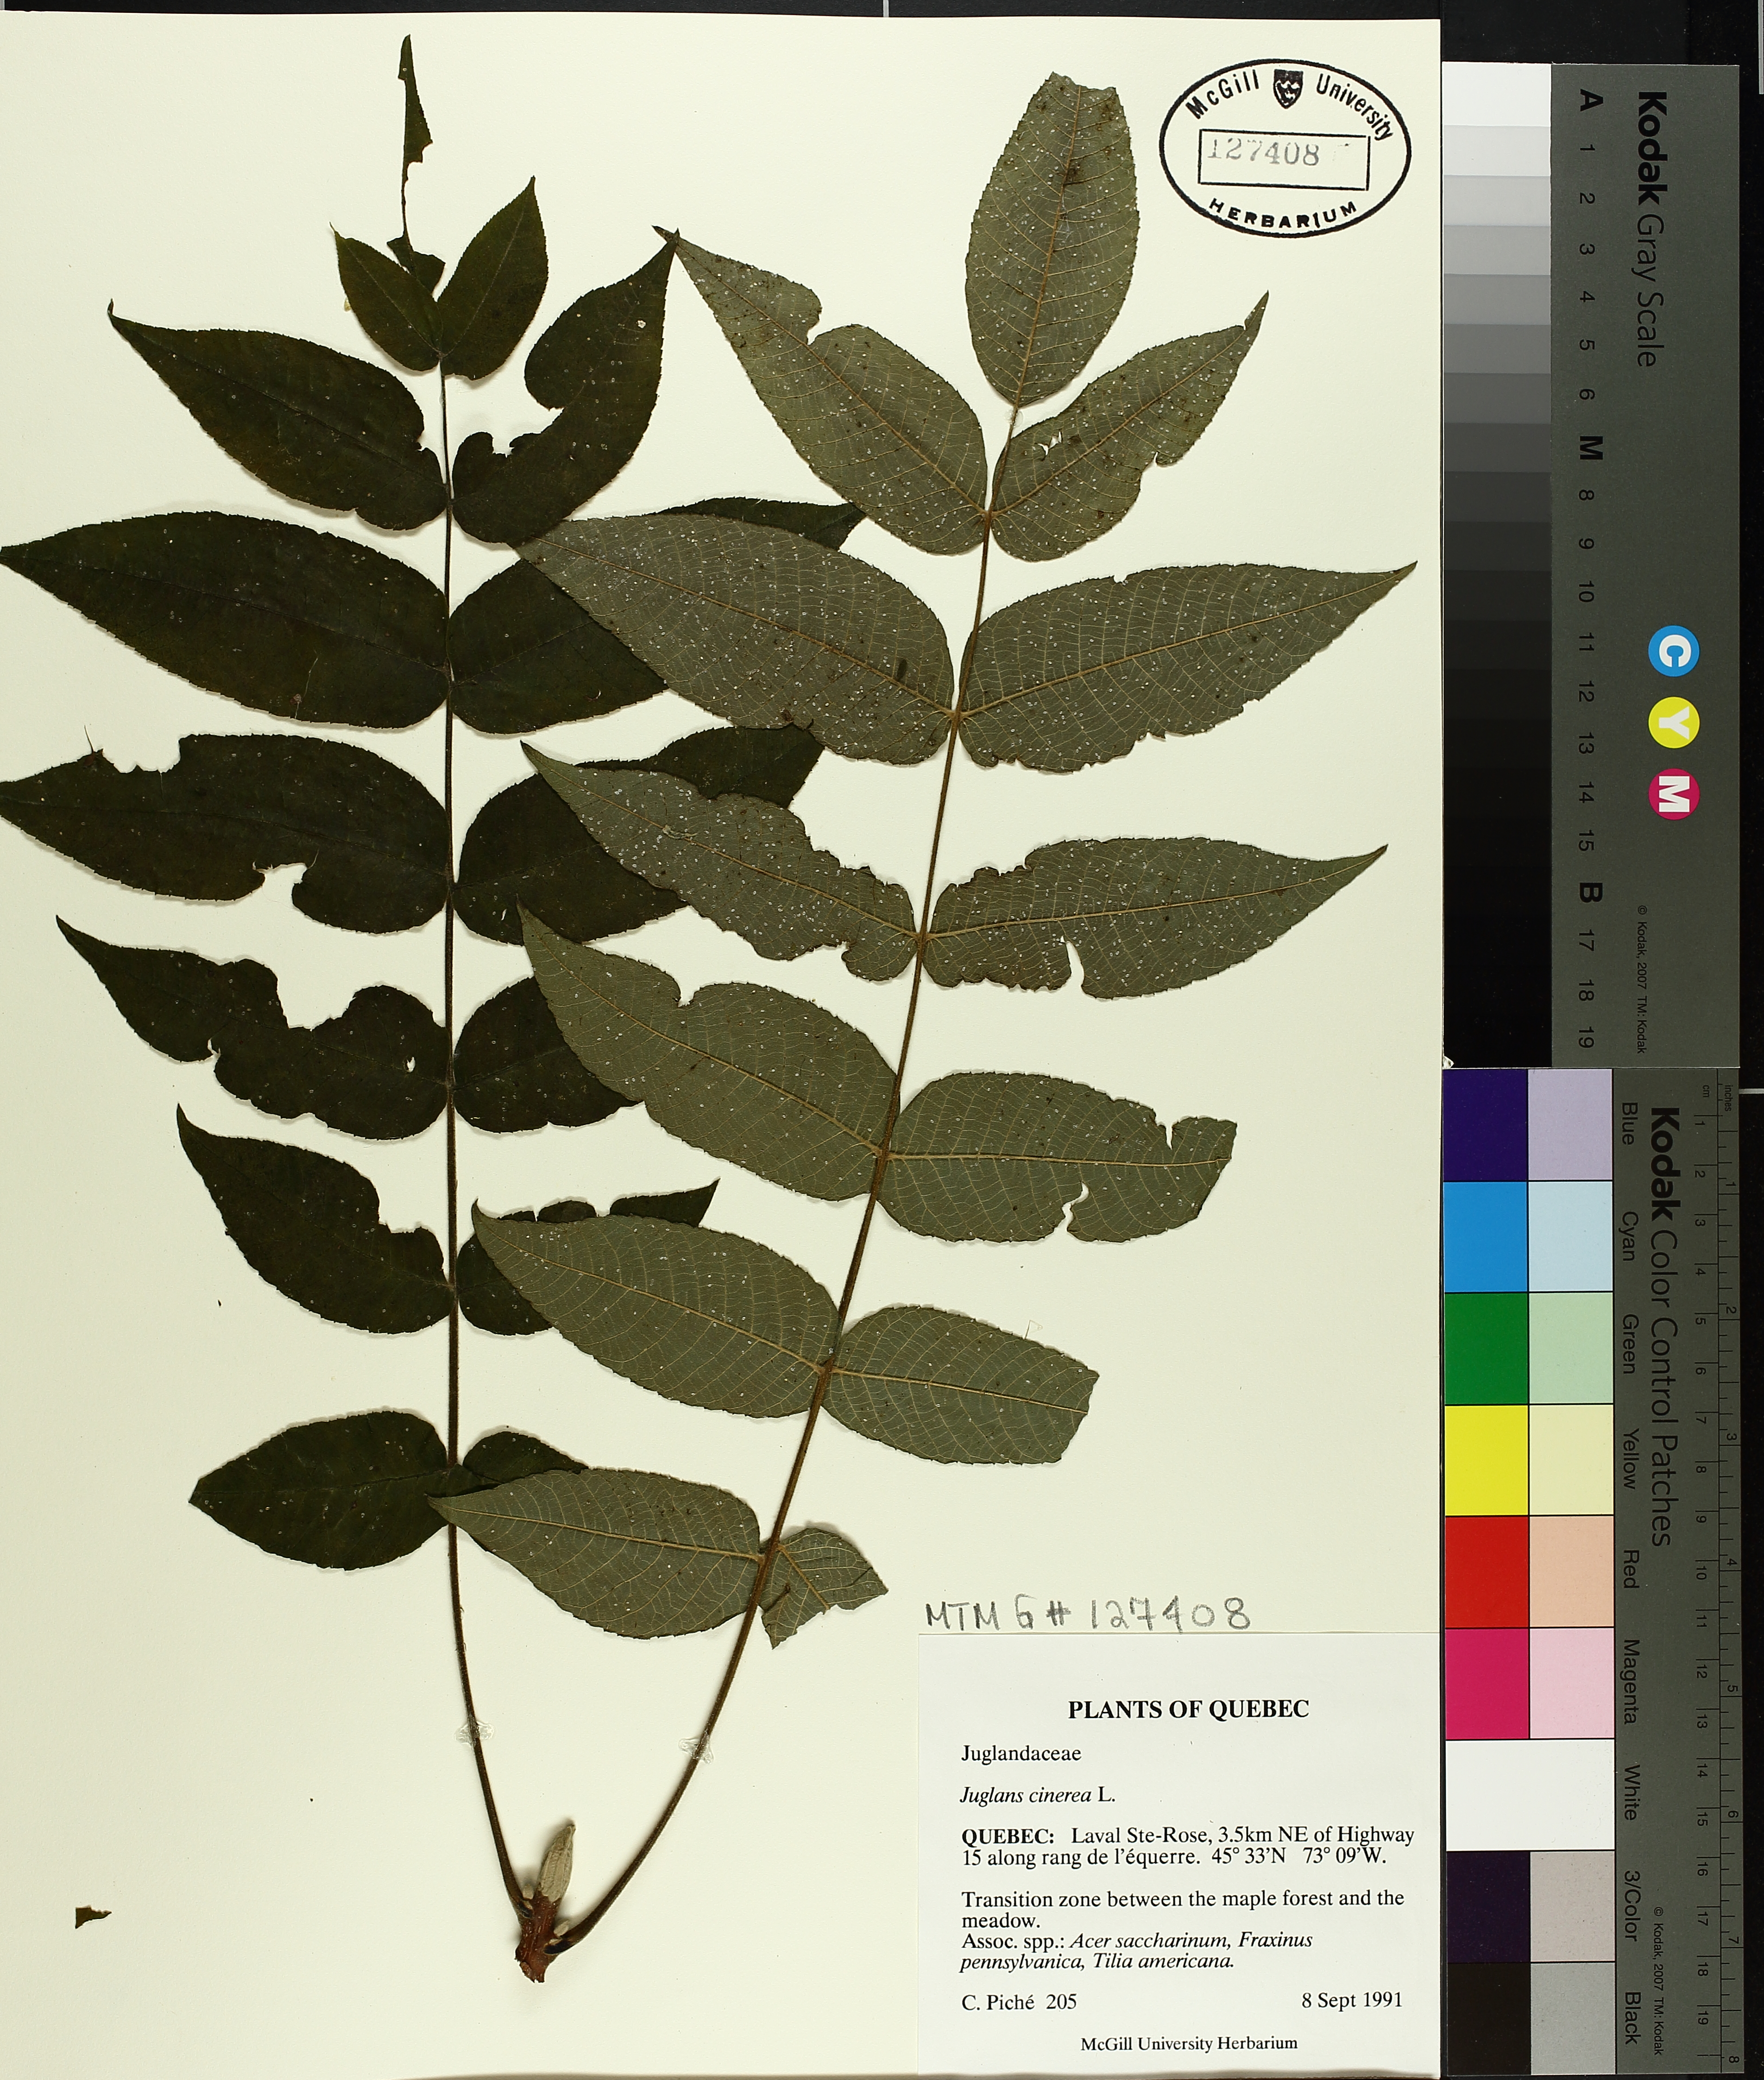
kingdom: Plantae
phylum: Tracheophyta
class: Magnoliopsida
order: Fagales
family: Juglandaceae
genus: Juglans
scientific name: Juglans cinerea
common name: Butternut
